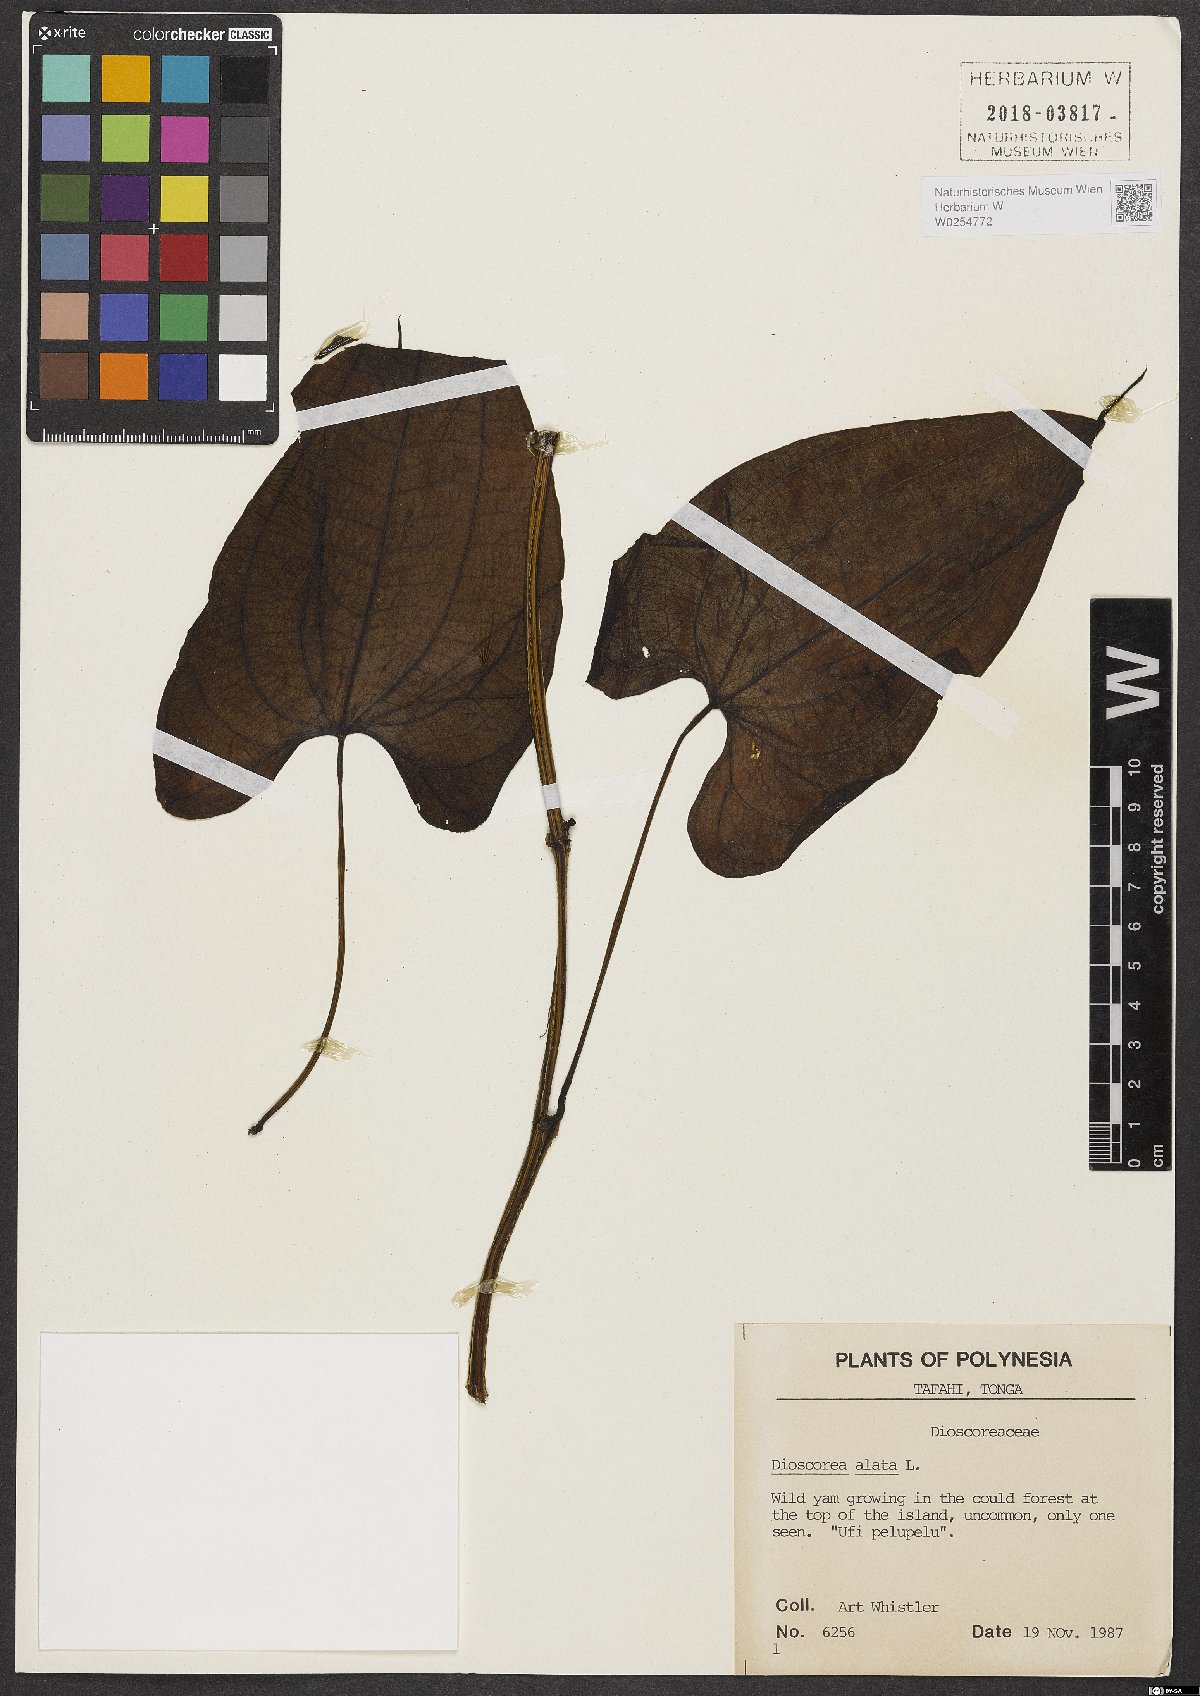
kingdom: Plantae
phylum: Tracheophyta
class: Liliopsida
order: Dioscoreales
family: Dioscoreaceae
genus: Dioscorea
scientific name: Dioscorea alata
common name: Water yam
